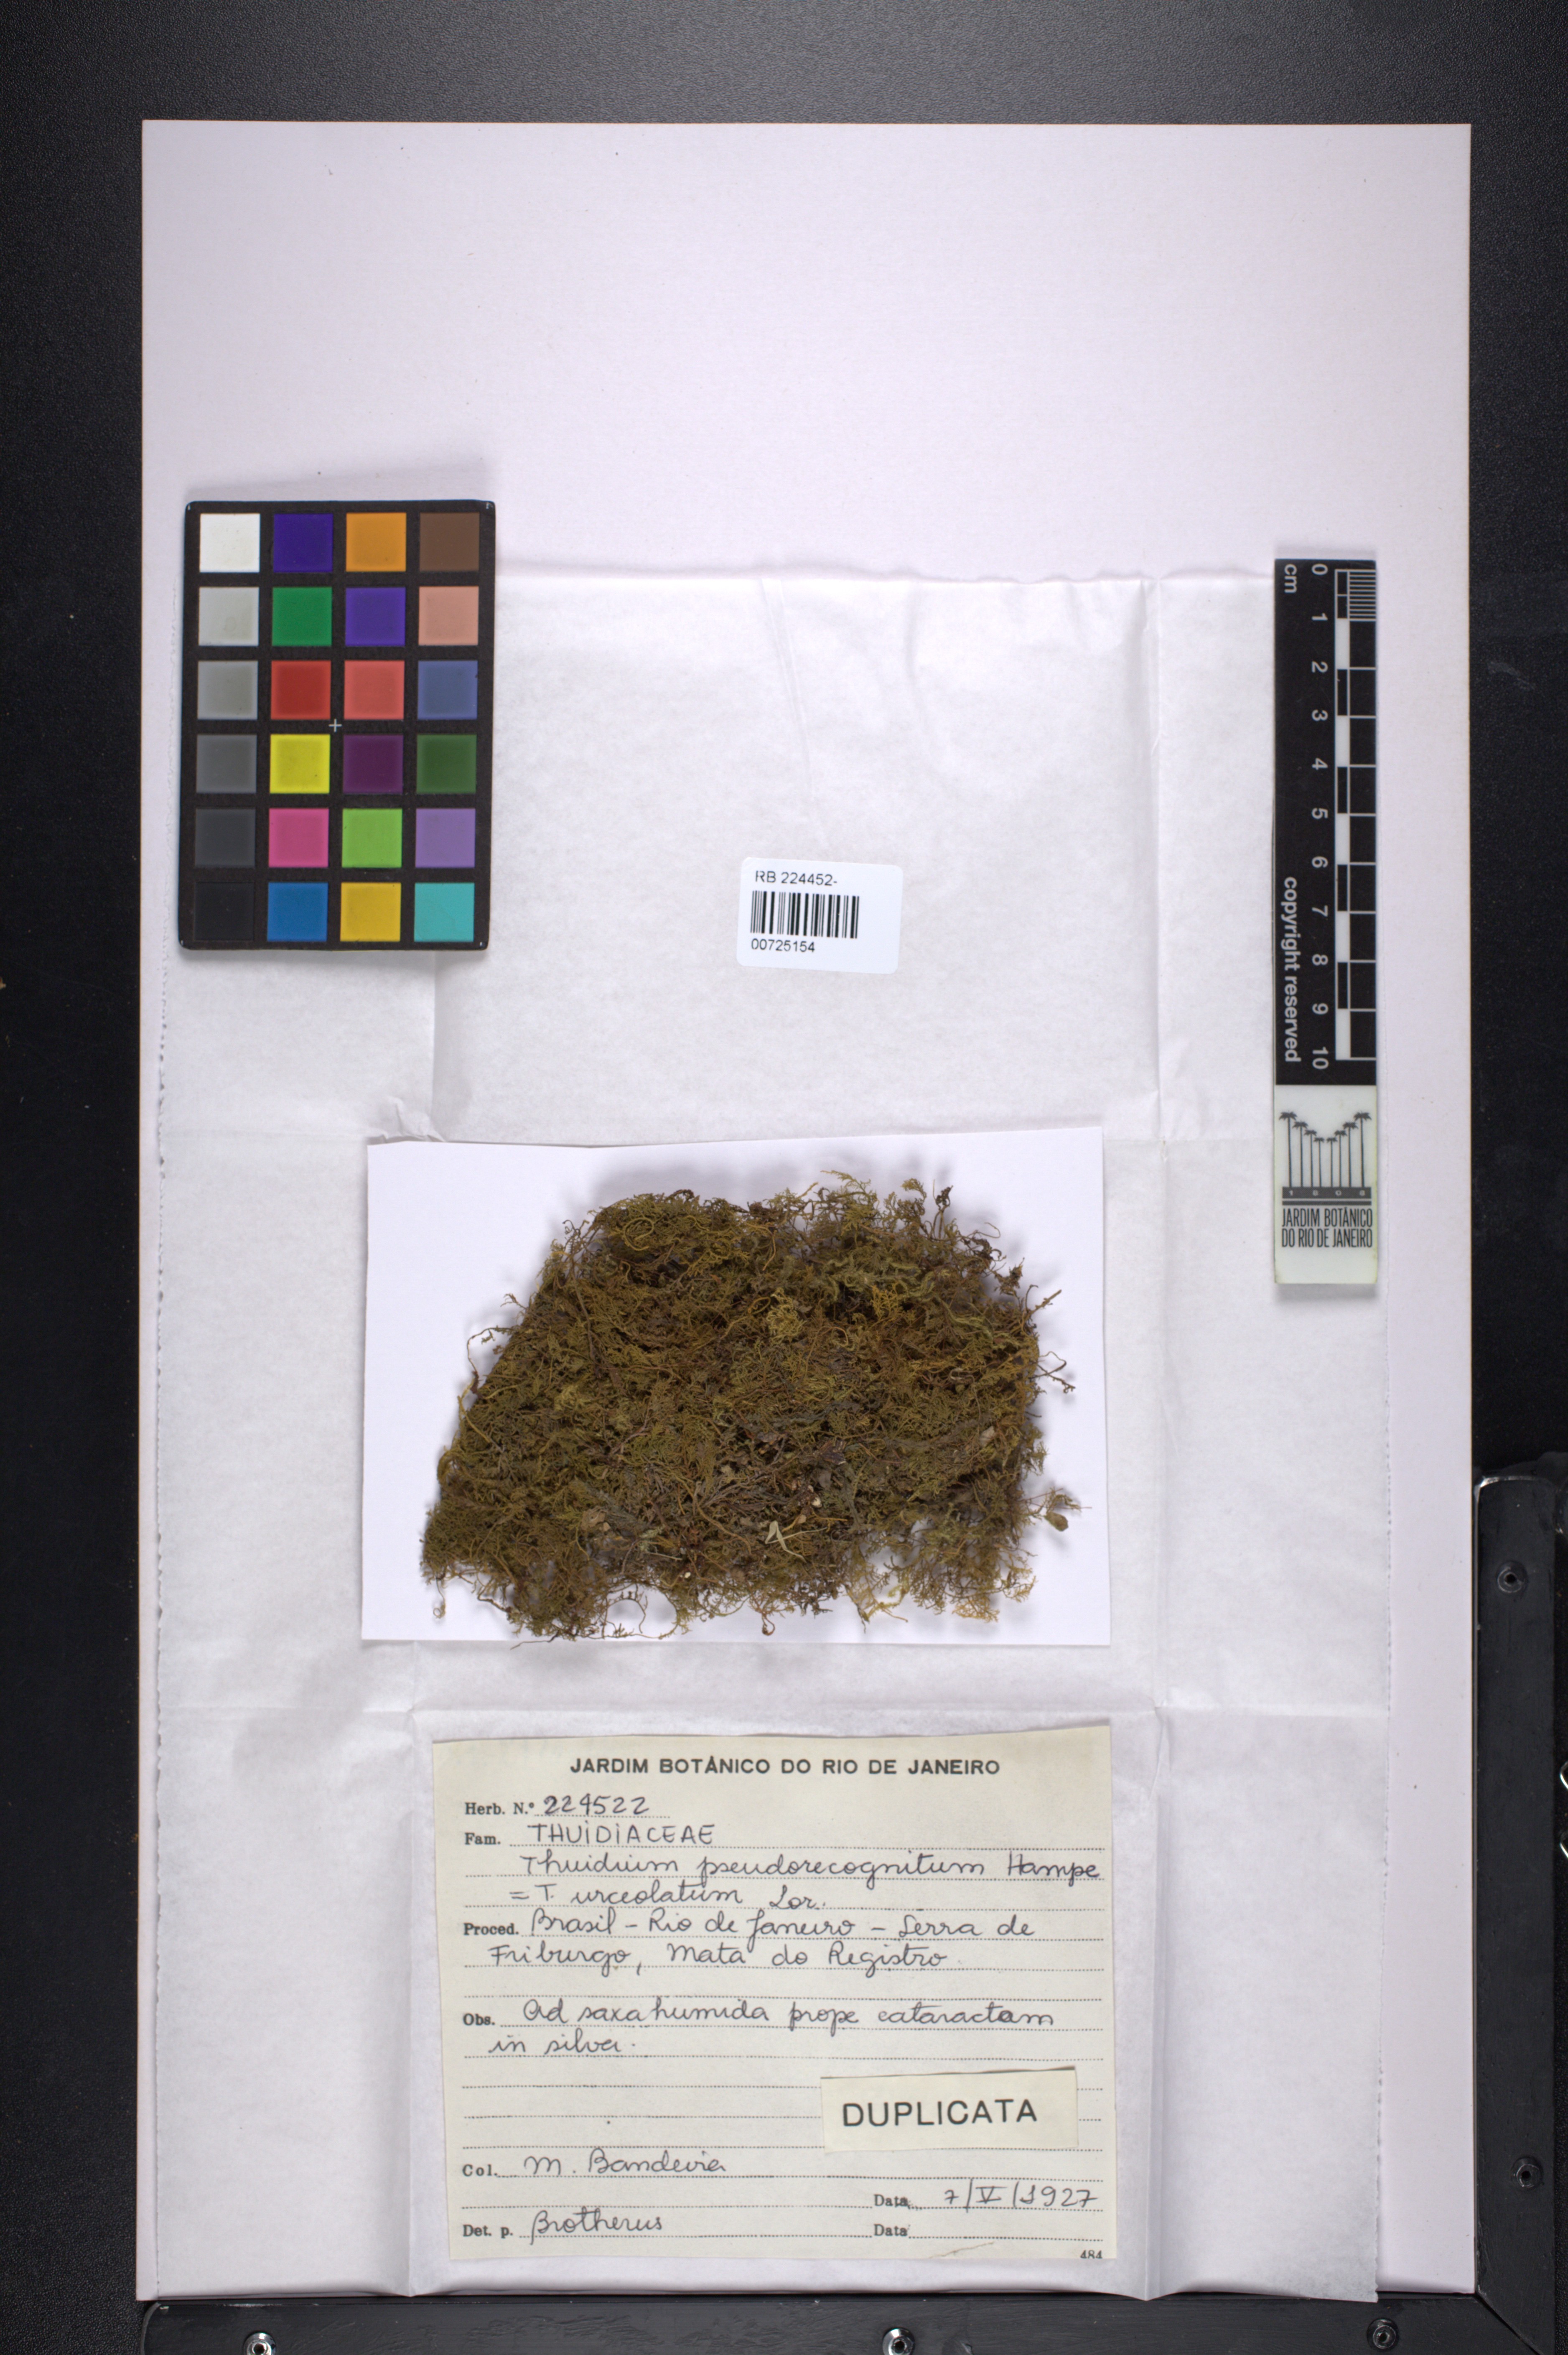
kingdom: Plantae
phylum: Bryophyta
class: Bryopsida
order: Hypnales
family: Thuidiaceae
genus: Thuidium
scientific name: Thuidium urceolatum
